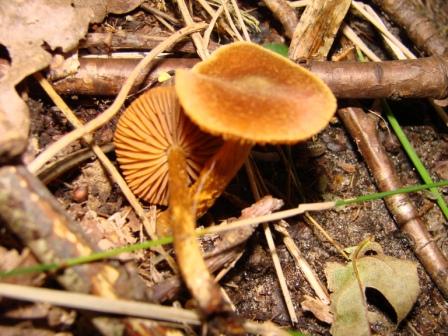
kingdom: Fungi
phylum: Basidiomycota
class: Agaricomycetes
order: Agaricales
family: Cortinariaceae
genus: Cortinarius
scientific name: Cortinarius saniosus
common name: gultrævlet slørhat
